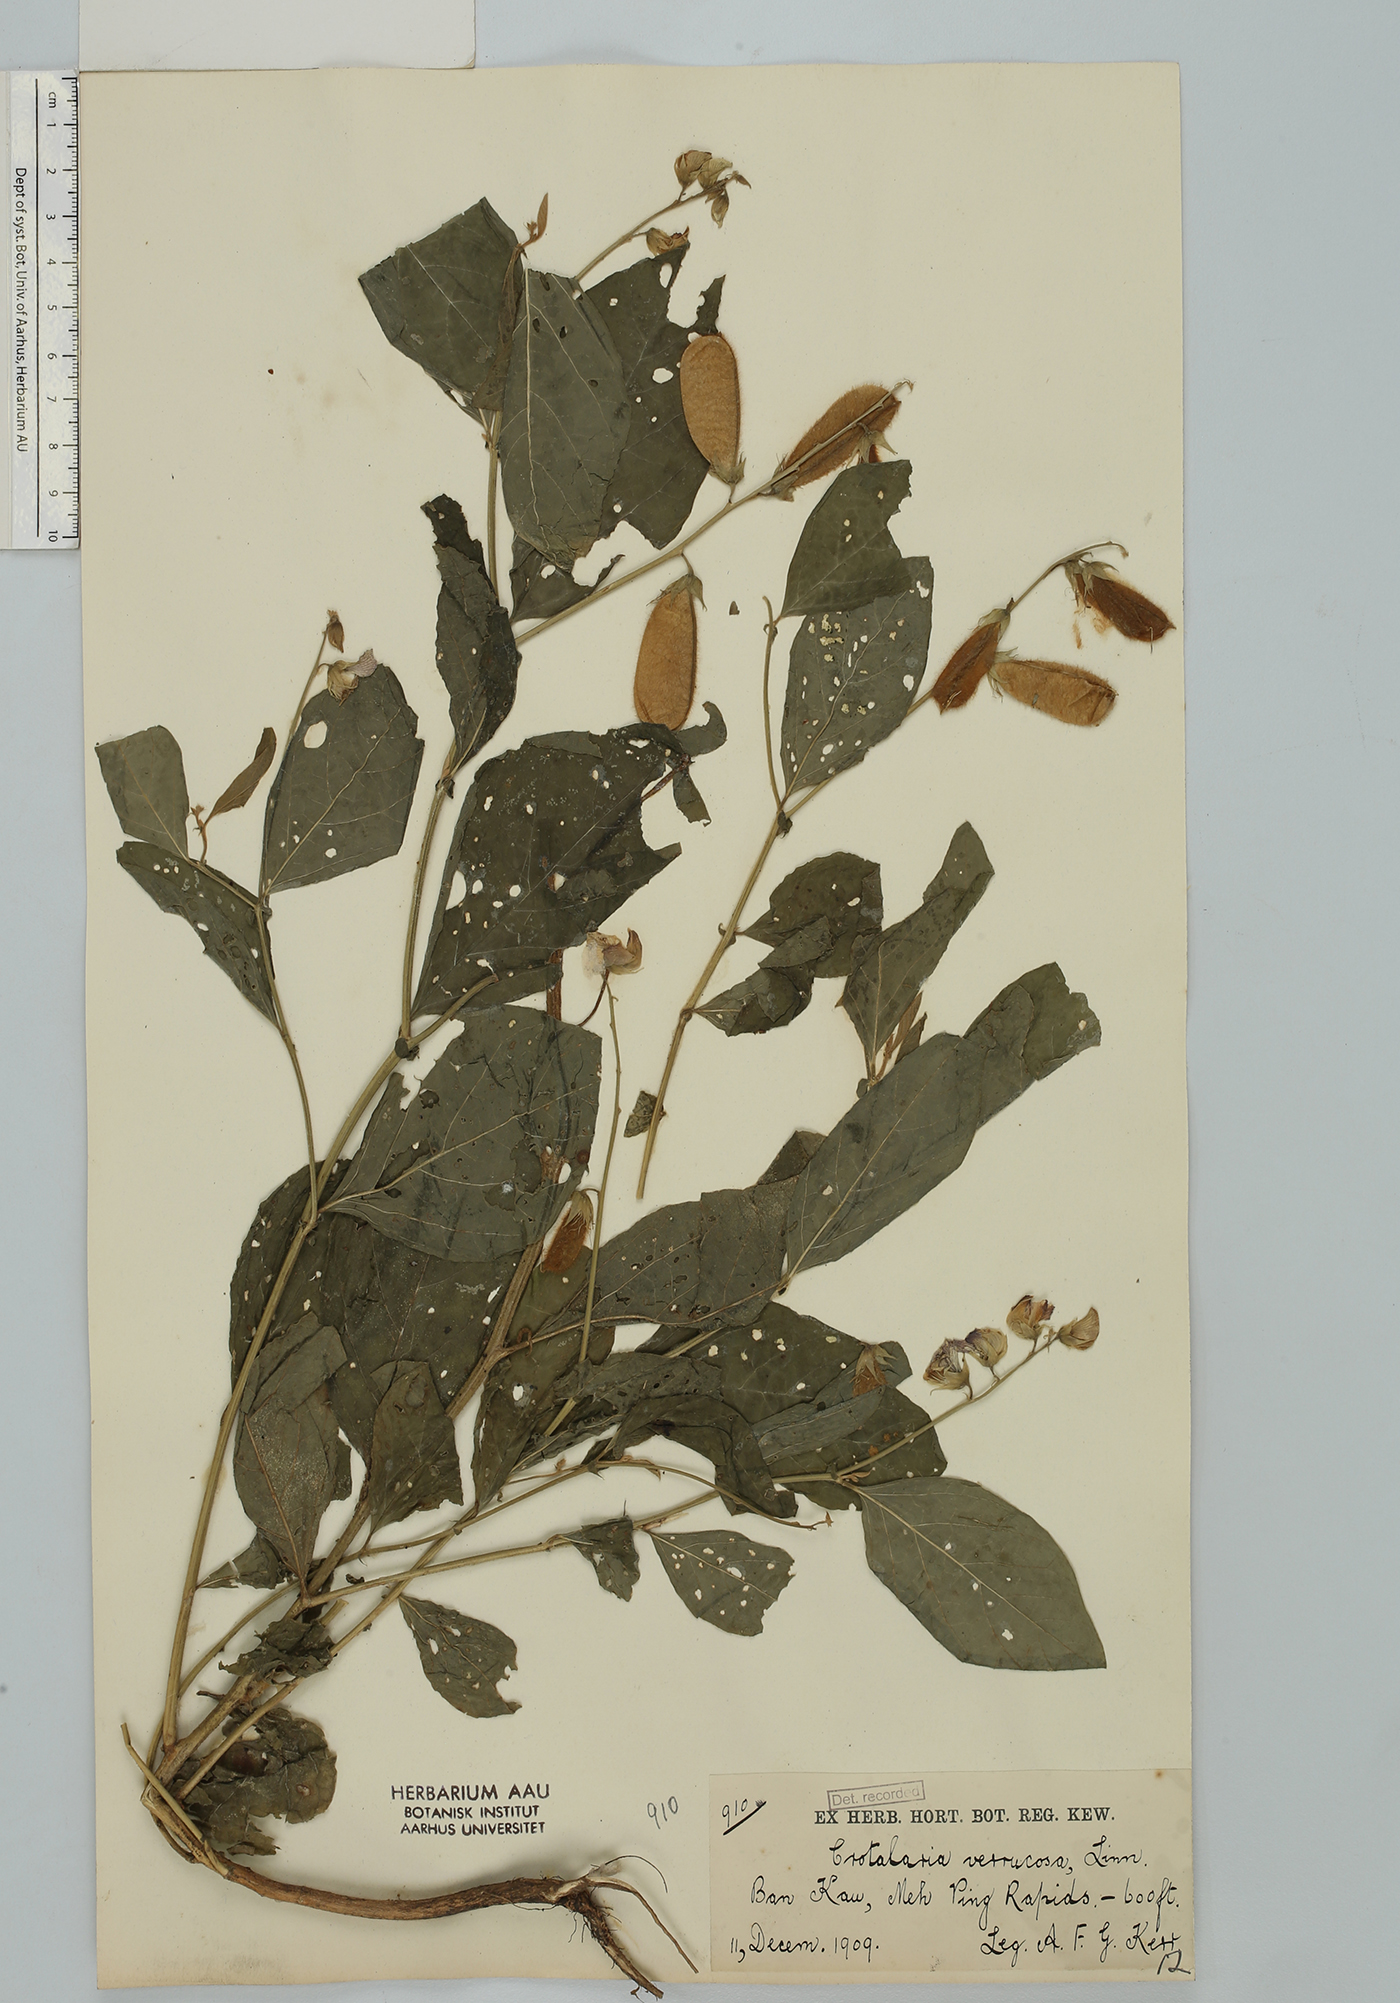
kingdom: Plantae
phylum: Tracheophyta
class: Magnoliopsida
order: Fabales
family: Fabaceae
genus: Crotalaria
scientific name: Crotalaria verrucosa
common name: Blue rattlesnake
